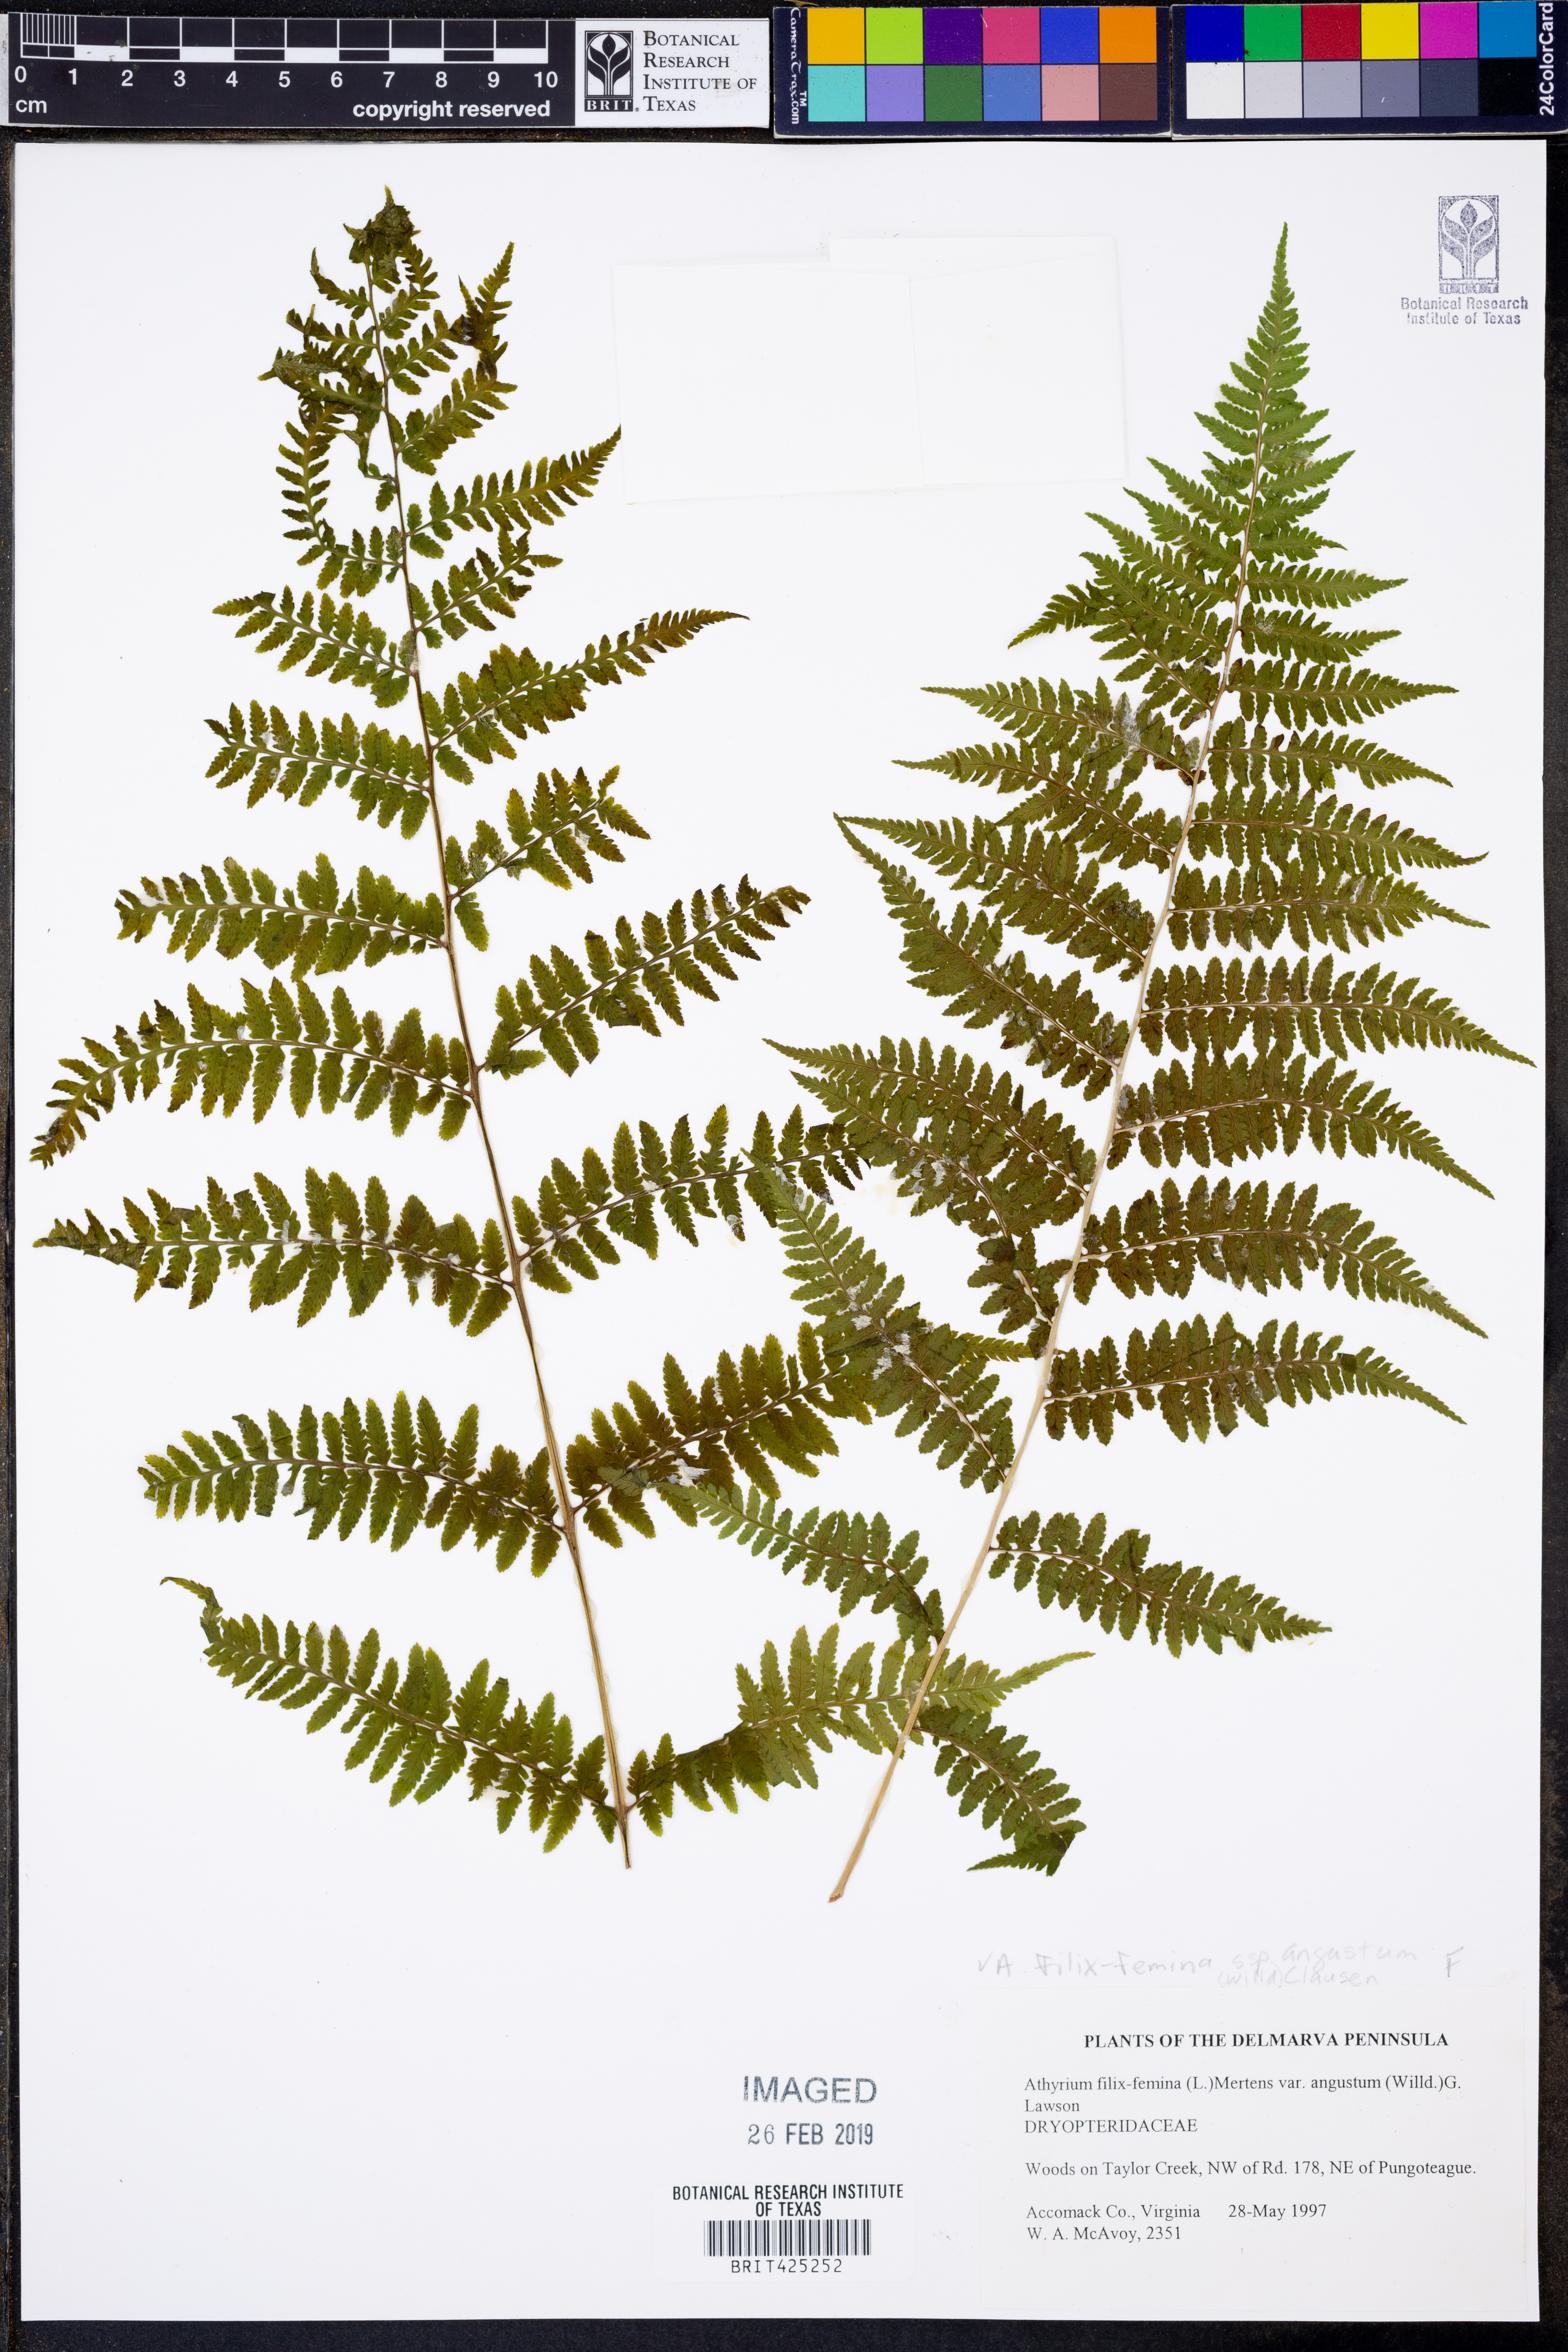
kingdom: Plantae
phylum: Tracheophyta
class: Polypodiopsida
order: Polypodiales
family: Athyriaceae
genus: Athyrium
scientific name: Athyrium angustum
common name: Northern lady fern
